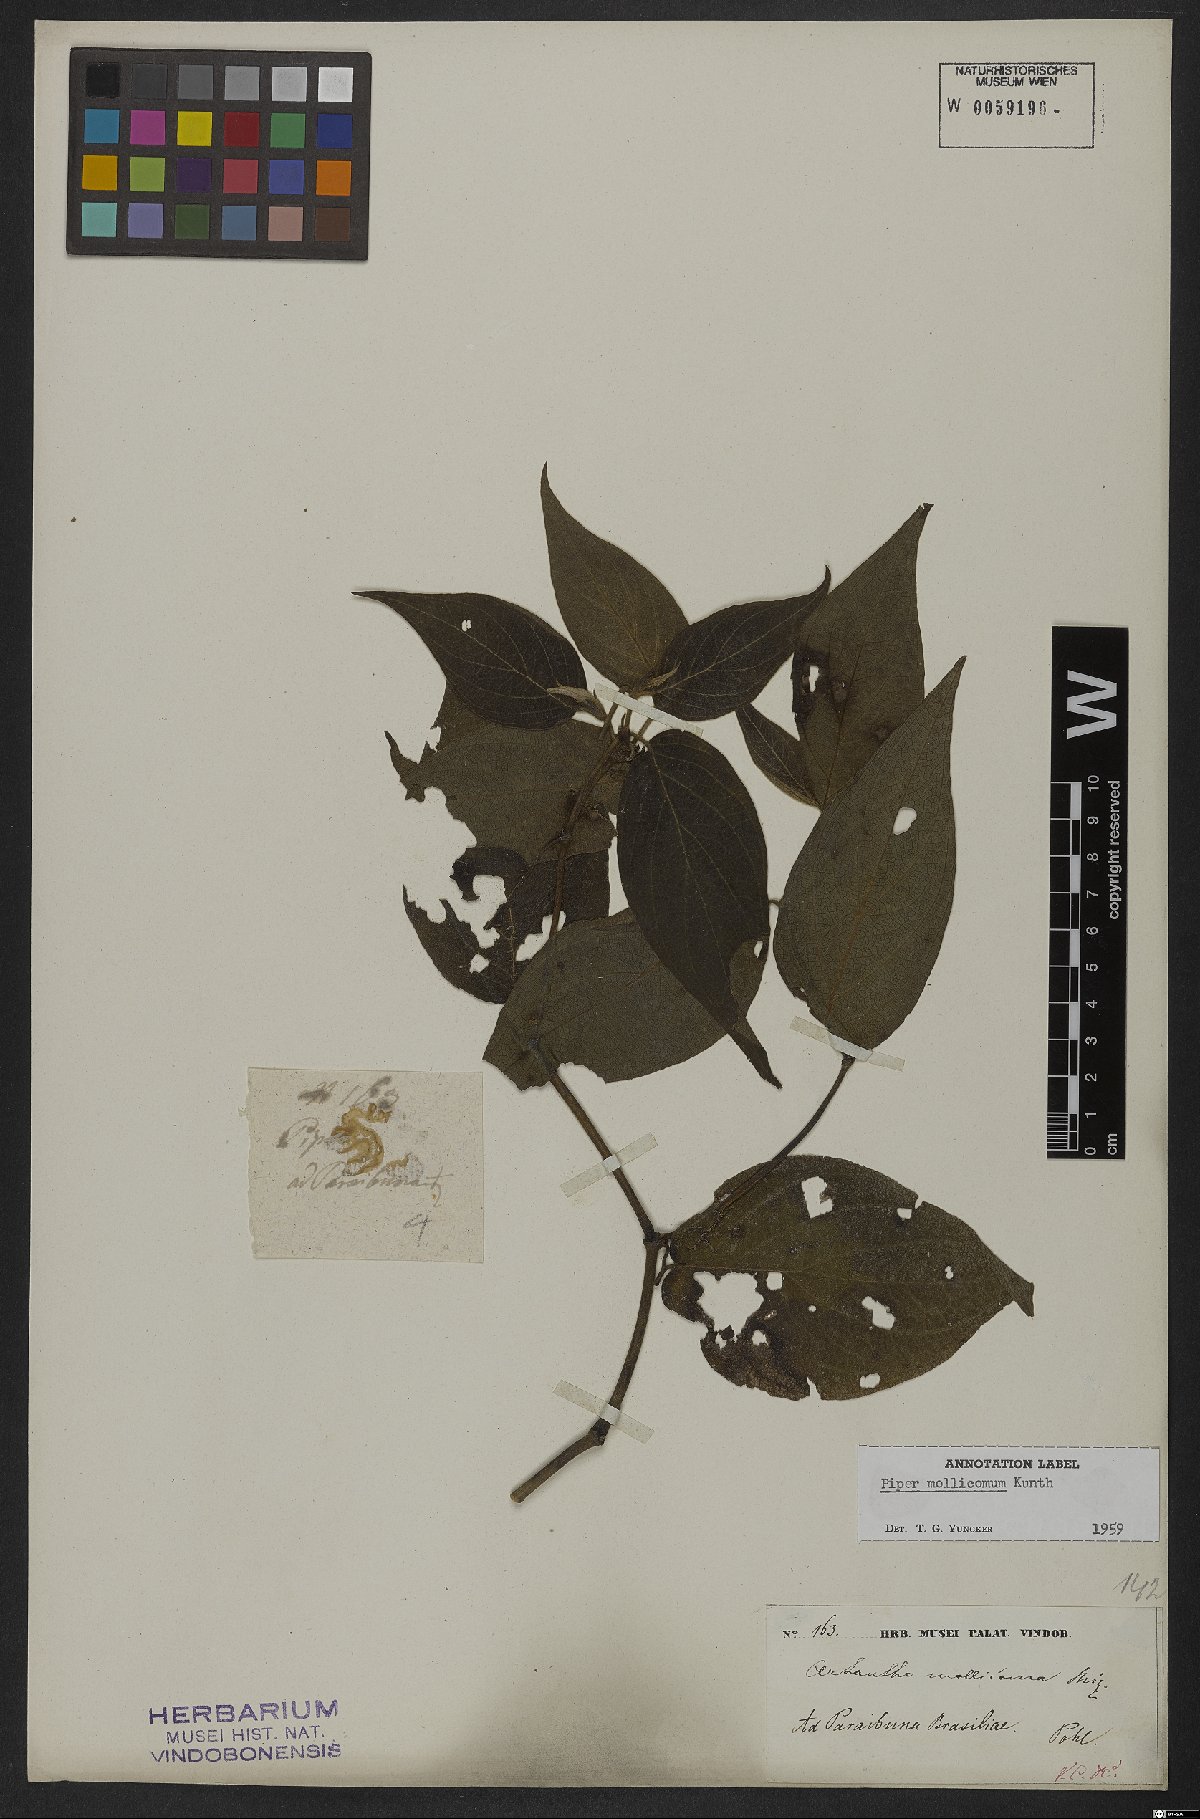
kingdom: Plantae
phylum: Tracheophyta
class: Magnoliopsida
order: Piperales
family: Piperaceae
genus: Piper
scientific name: Piper mollicomum
